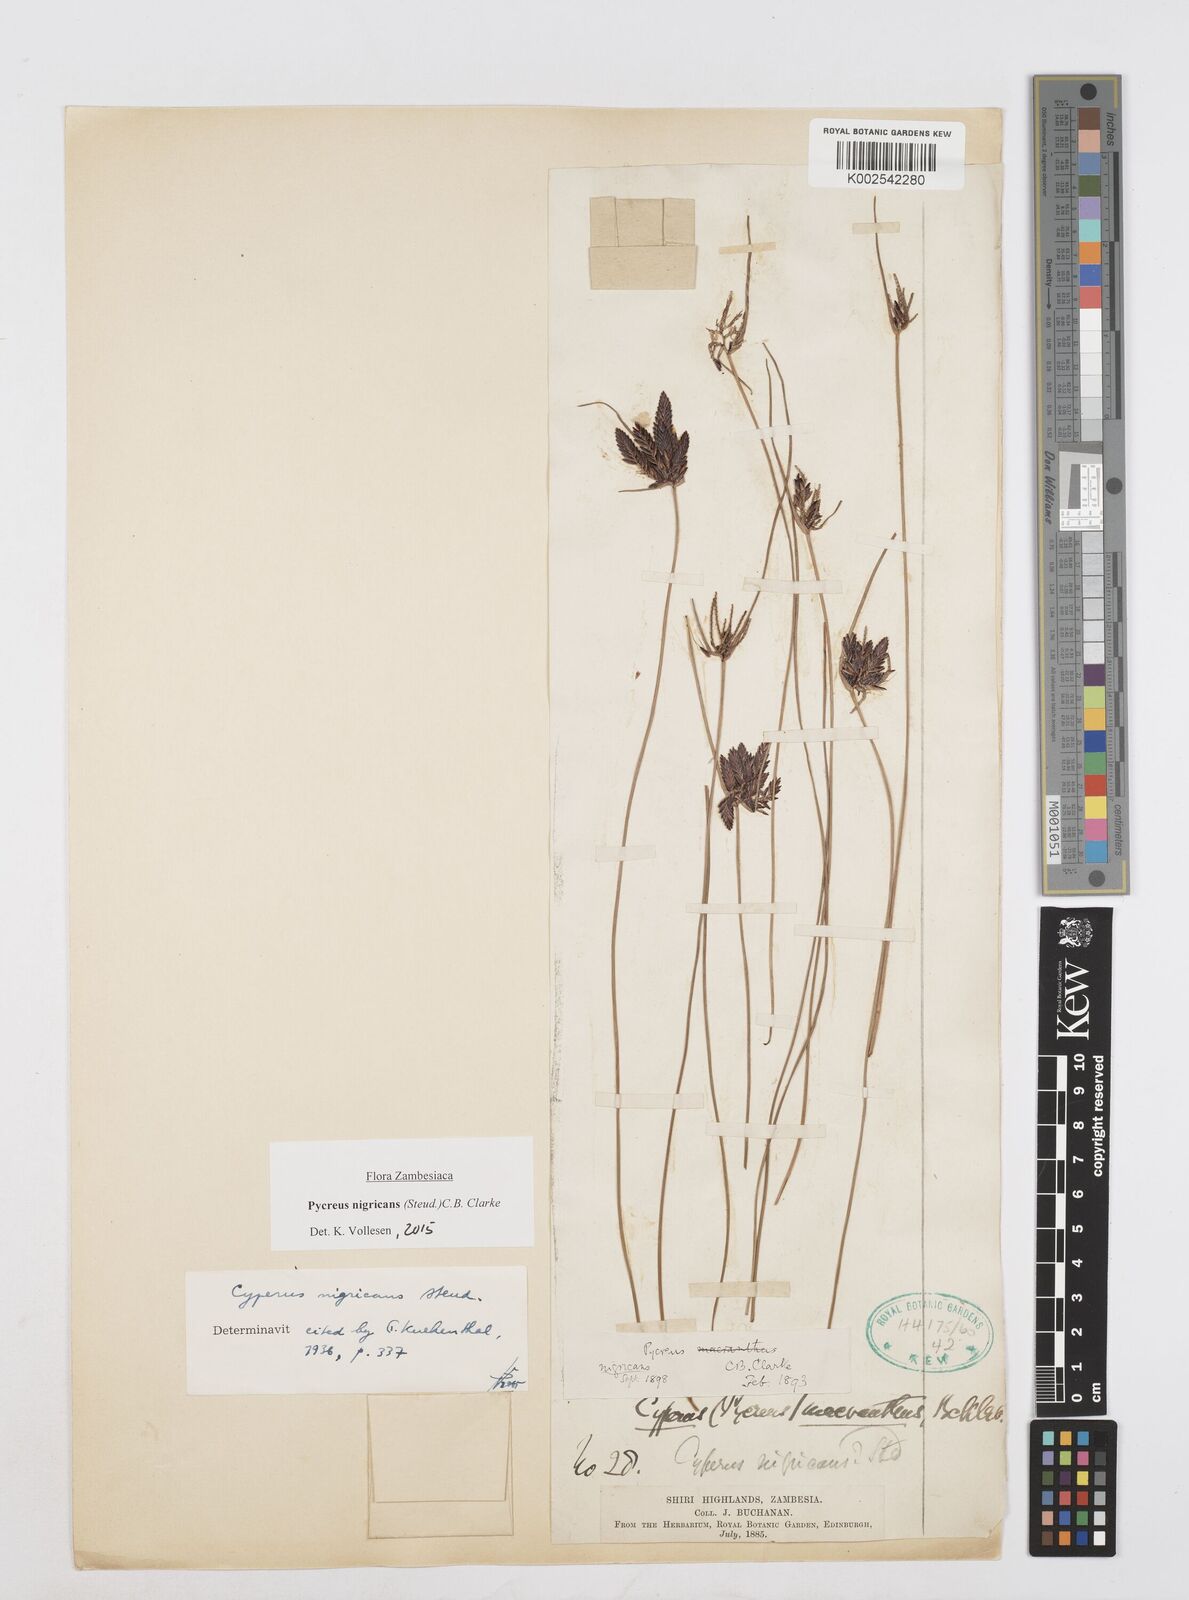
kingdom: Plantae
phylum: Tracheophyta
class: Liliopsida
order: Poales
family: Cyperaceae
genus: Cyperus
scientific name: Cyperus nigricans
